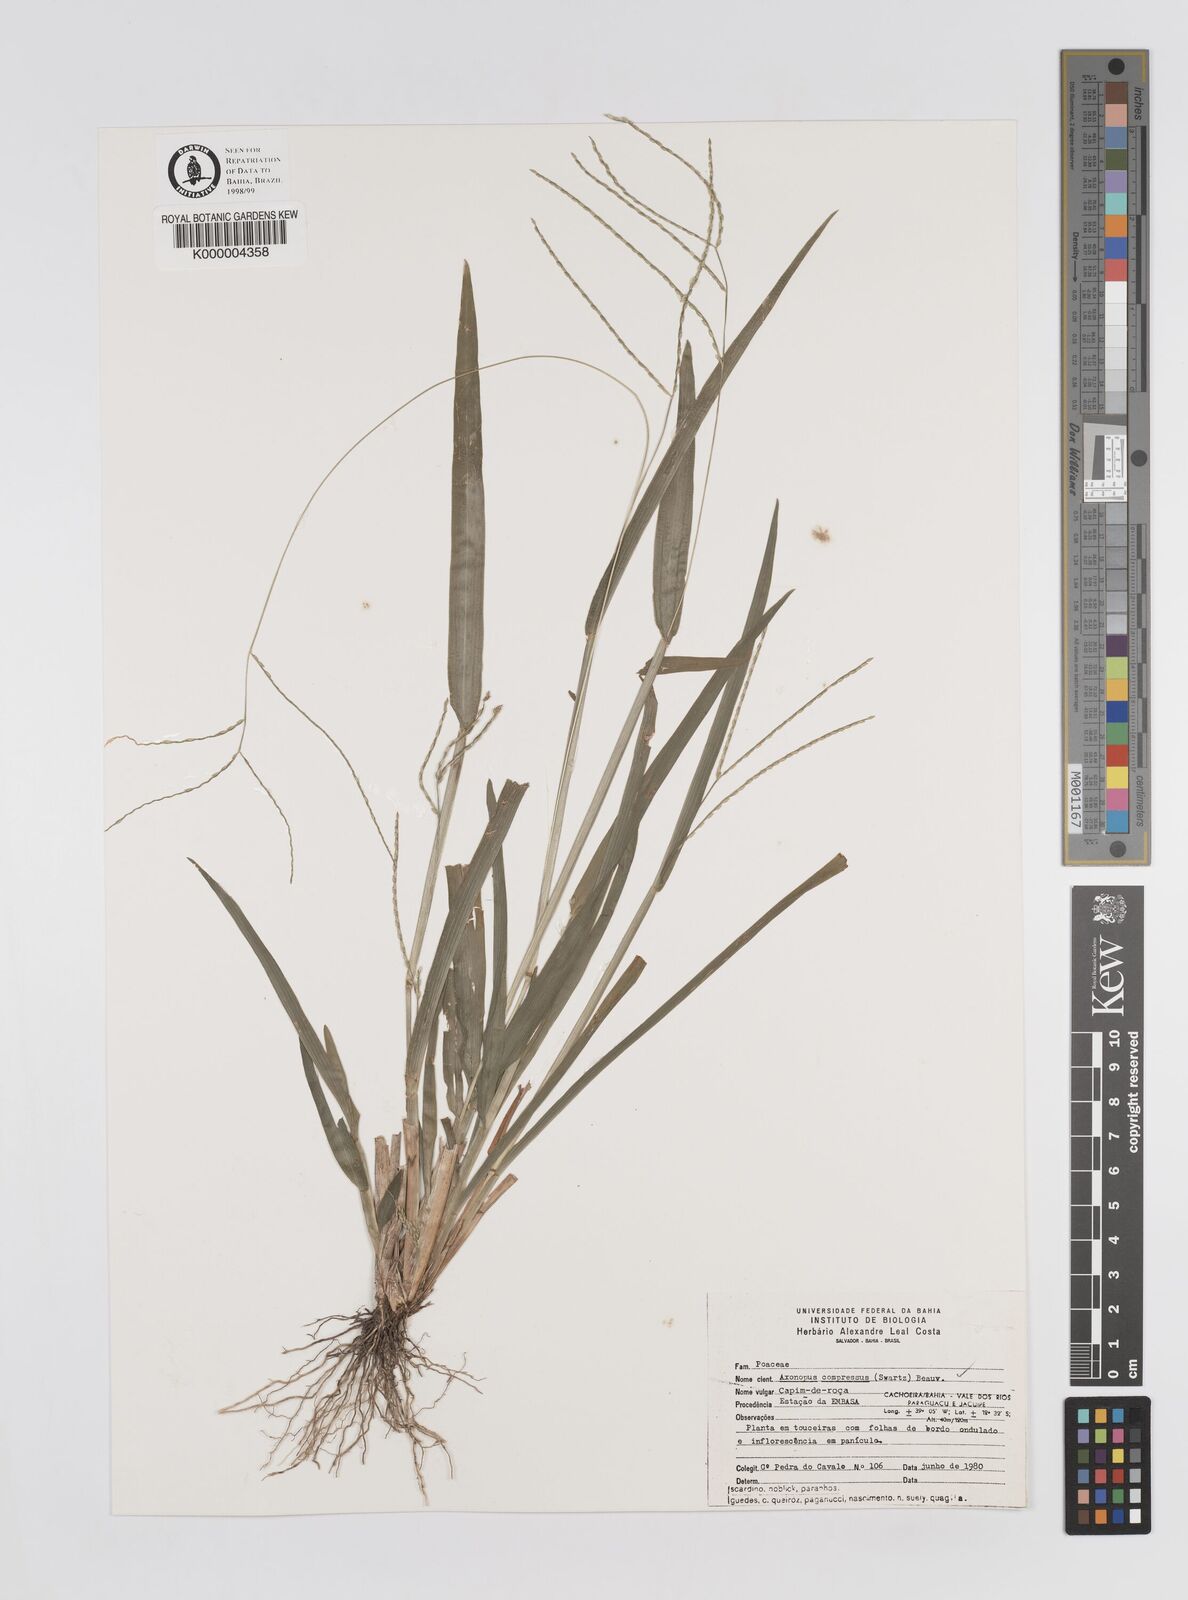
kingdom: Plantae
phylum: Tracheophyta
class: Liliopsida
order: Poales
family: Poaceae
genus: Axonopus
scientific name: Axonopus compressus
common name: American carpet grass
